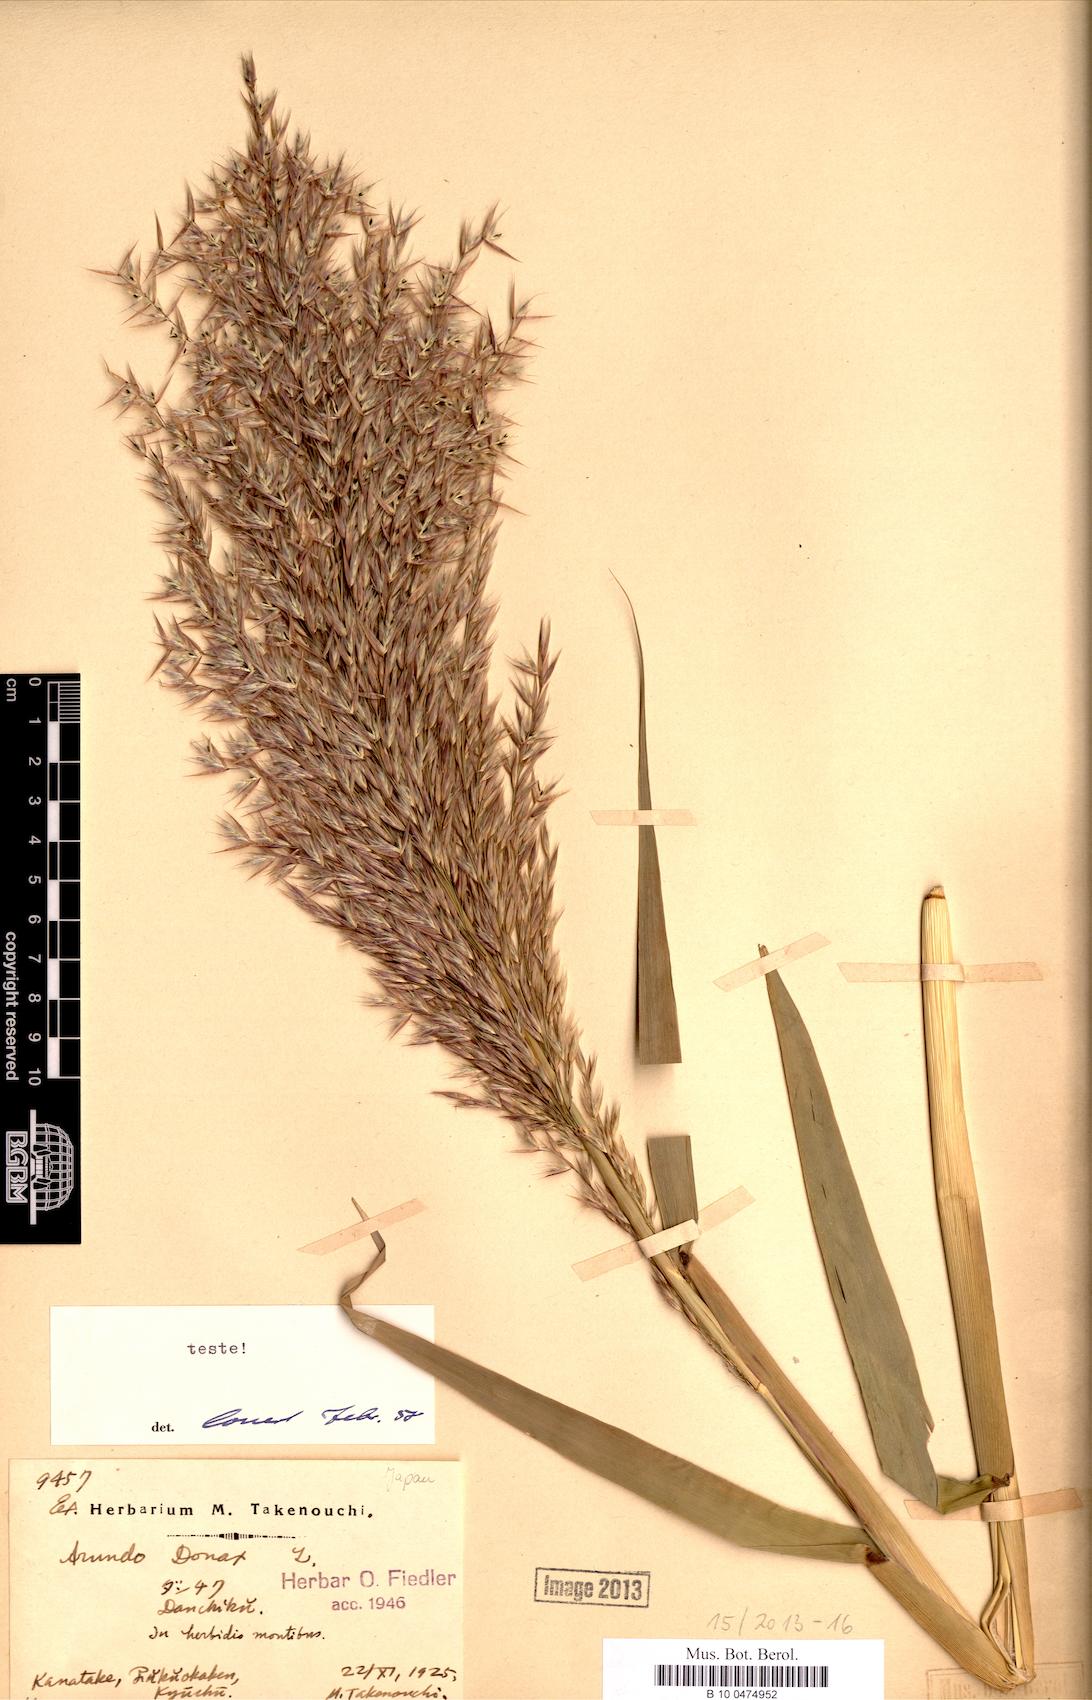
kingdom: Plantae
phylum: Tracheophyta
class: Liliopsida
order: Poales
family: Poaceae
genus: Arundo
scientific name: Arundo donax
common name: Giant reed
